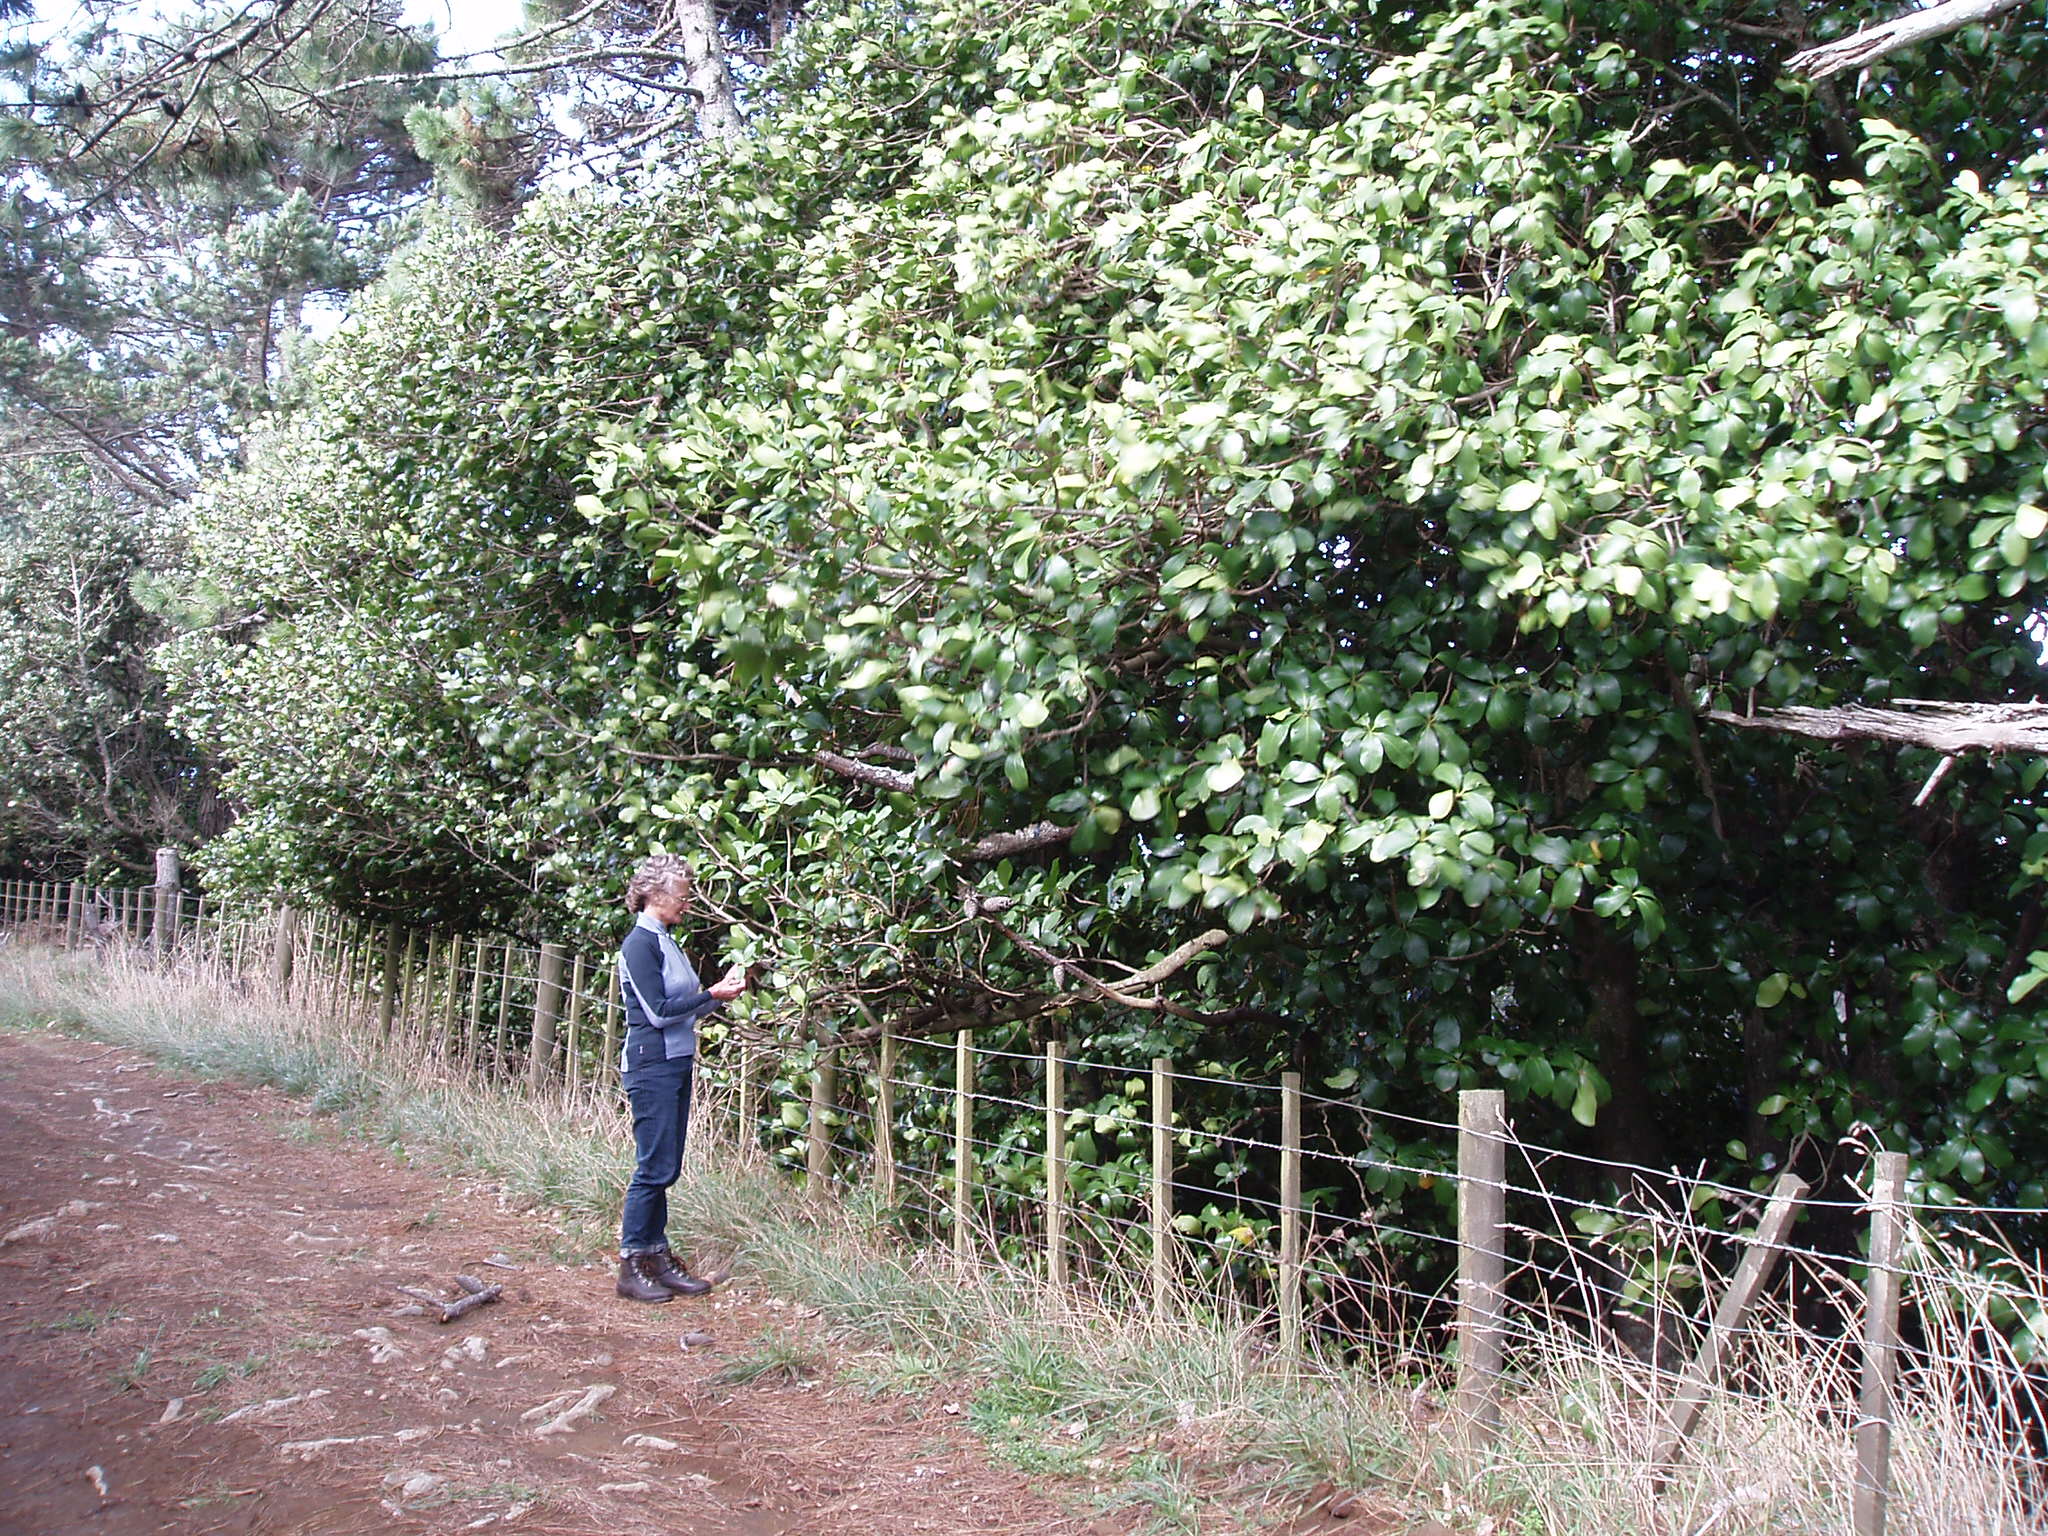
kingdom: Plantae
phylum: Tracheophyta
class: Magnoliopsida
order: Cucurbitales
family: Corynocarpaceae
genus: Corynocarpus
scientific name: Corynocarpus laevigatus
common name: New zealand laurel
